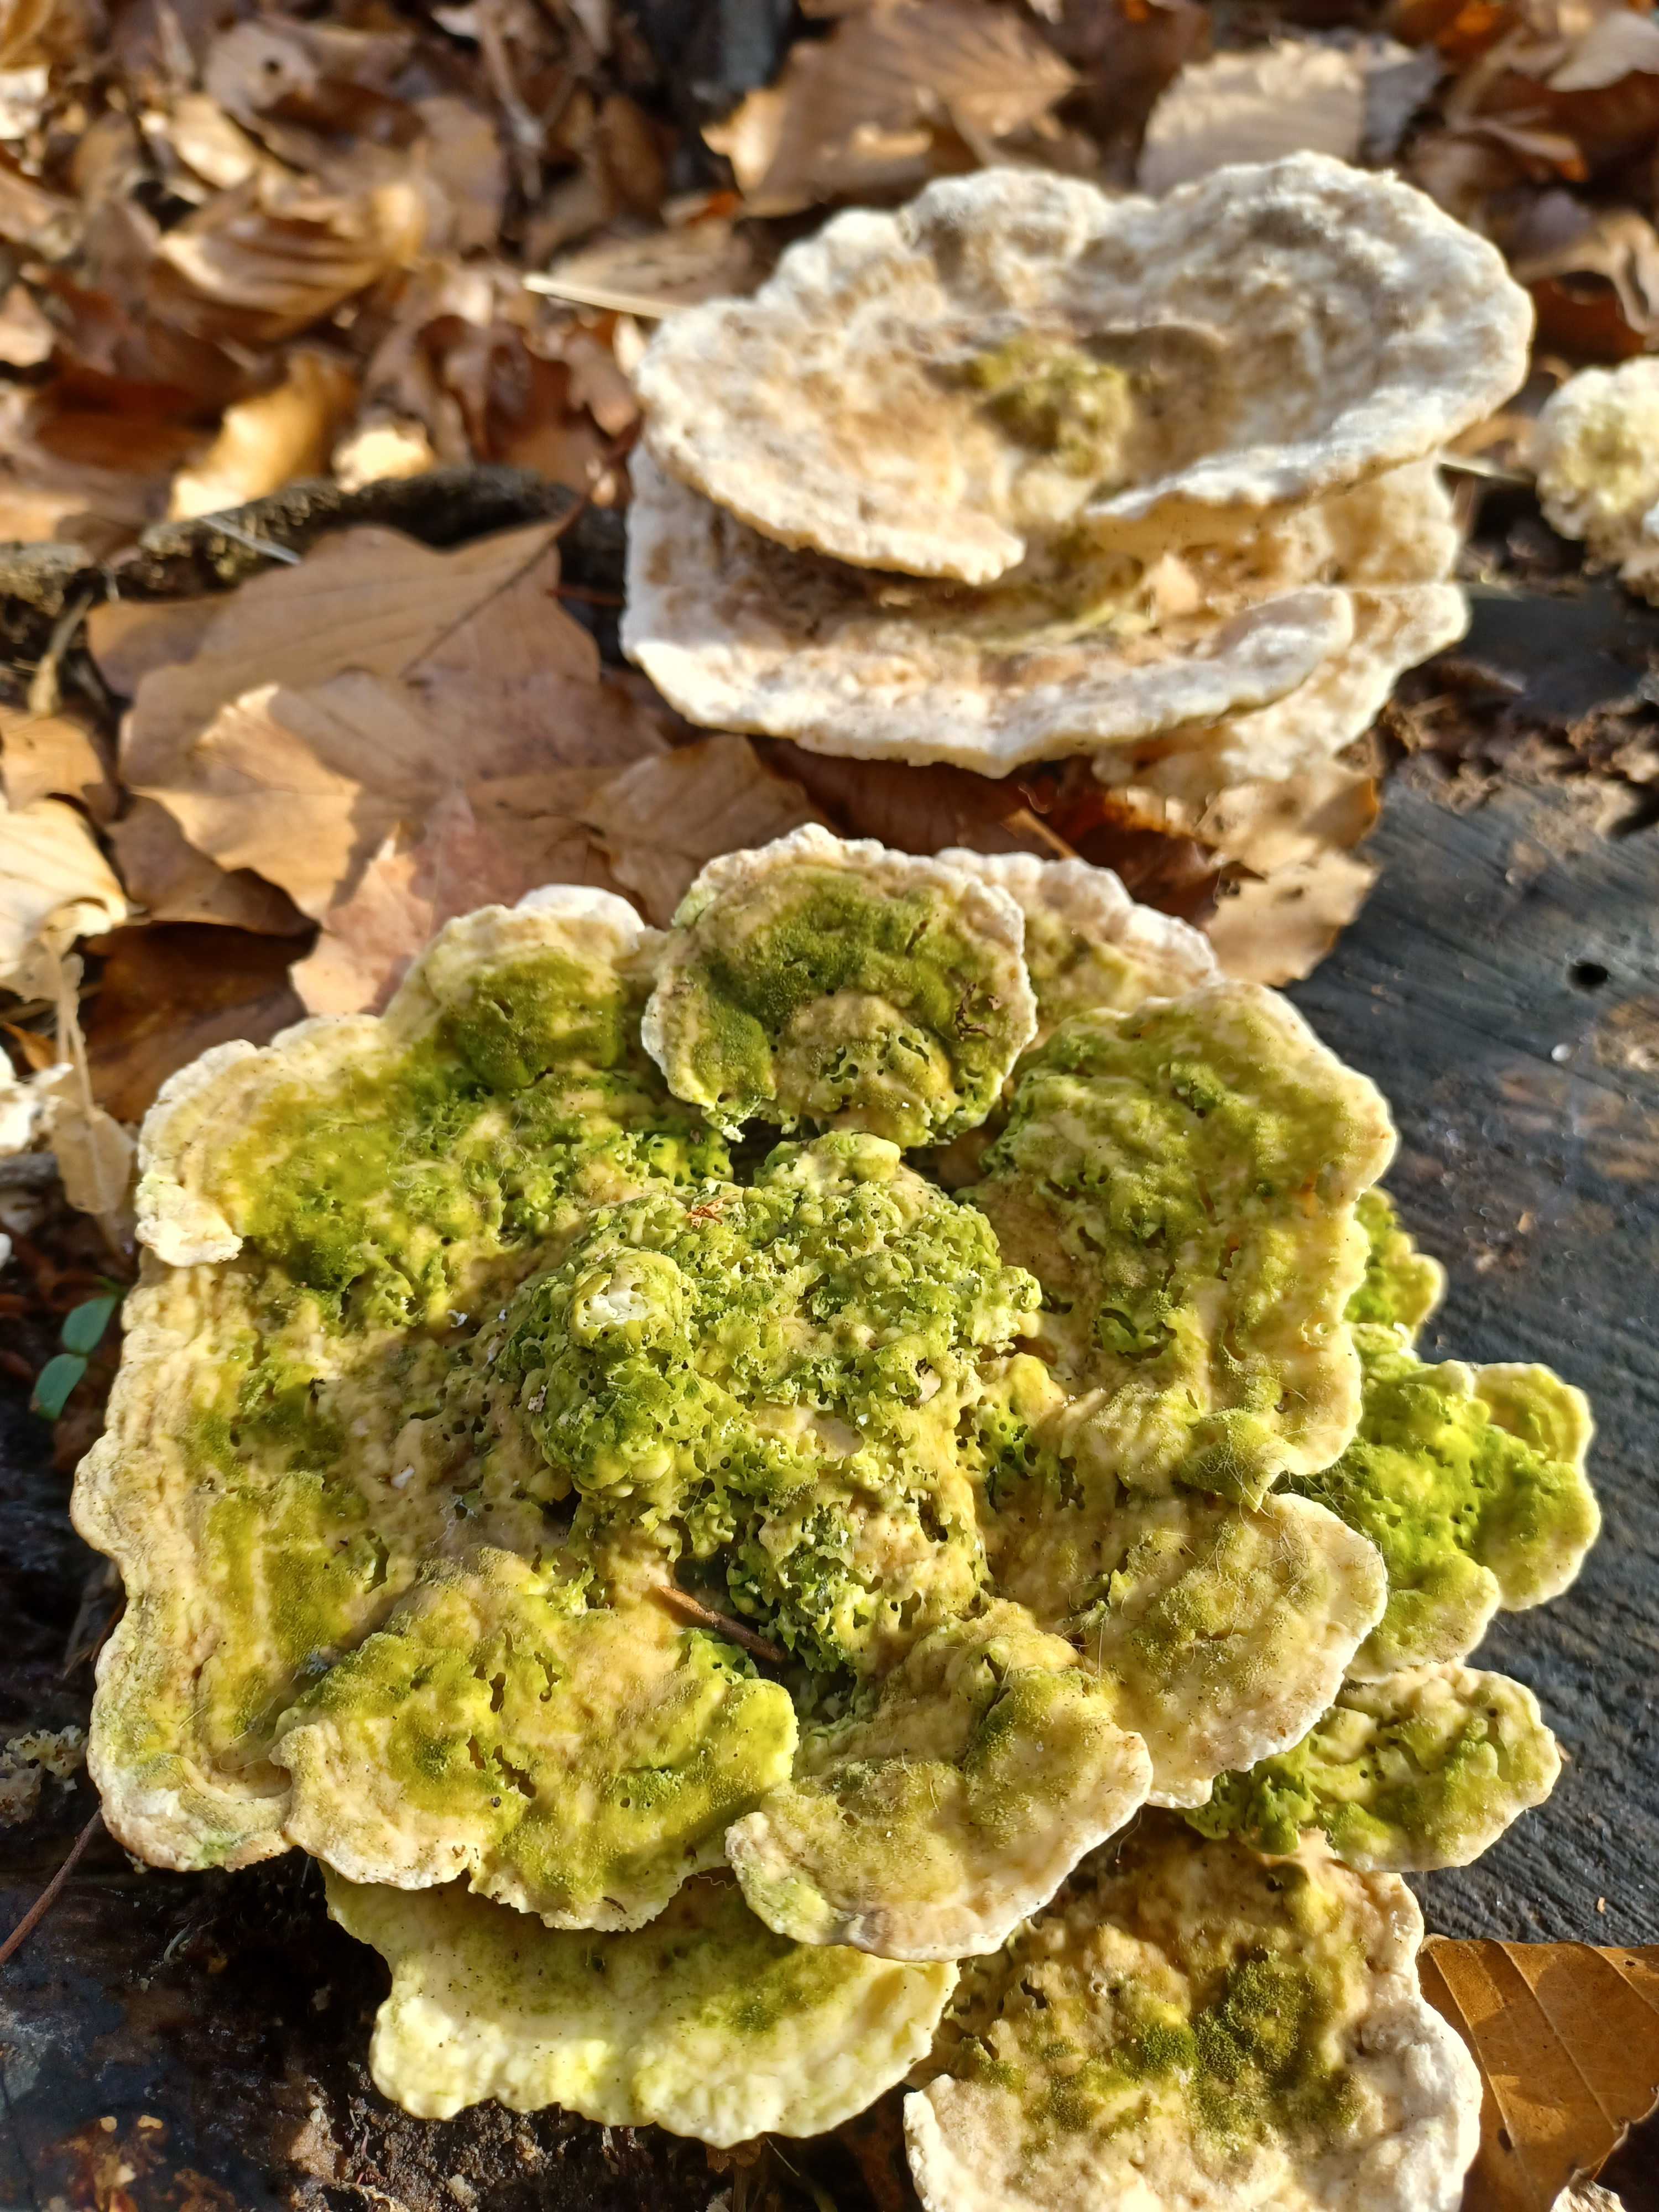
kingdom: Fungi
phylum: Basidiomycota
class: Agaricomycetes
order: Polyporales
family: Polyporaceae
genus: Trametes
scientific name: Trametes gibbosa
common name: puklet læderporesvamp
